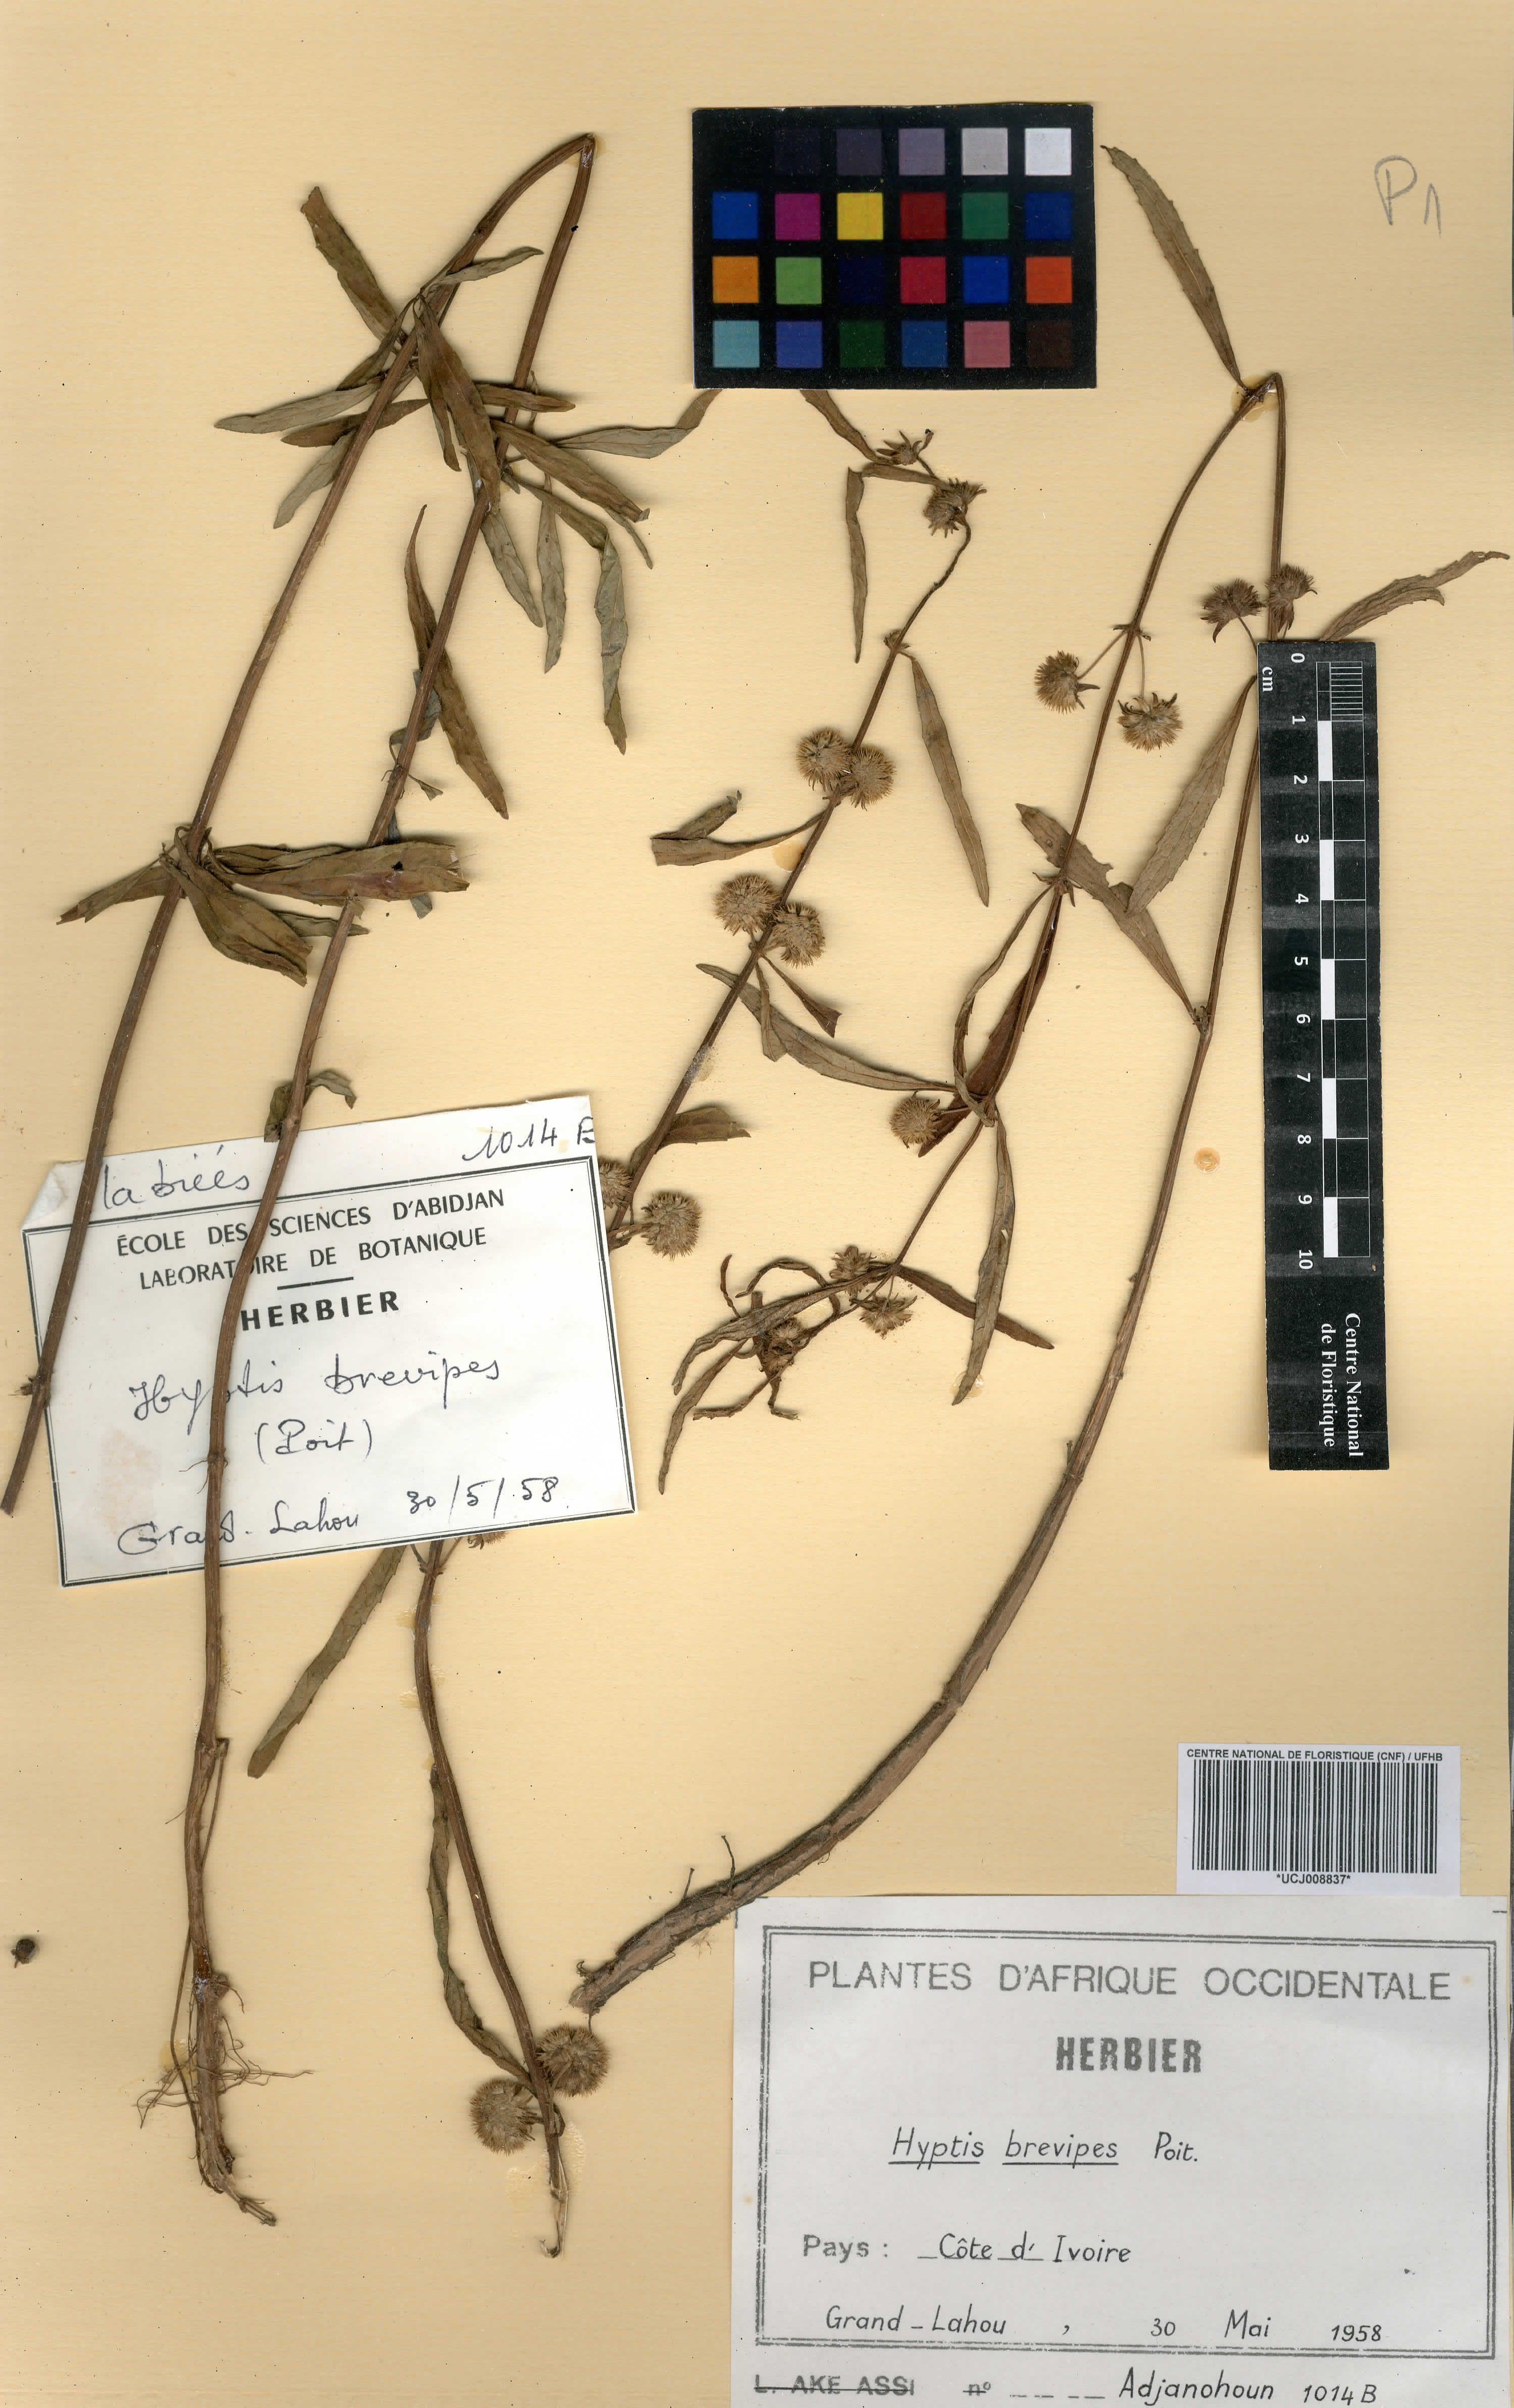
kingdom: Plantae
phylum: Tracheophyta
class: Magnoliopsida
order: Lamiales
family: Lamiaceae
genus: Hyptis
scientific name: Hyptis brevipes
